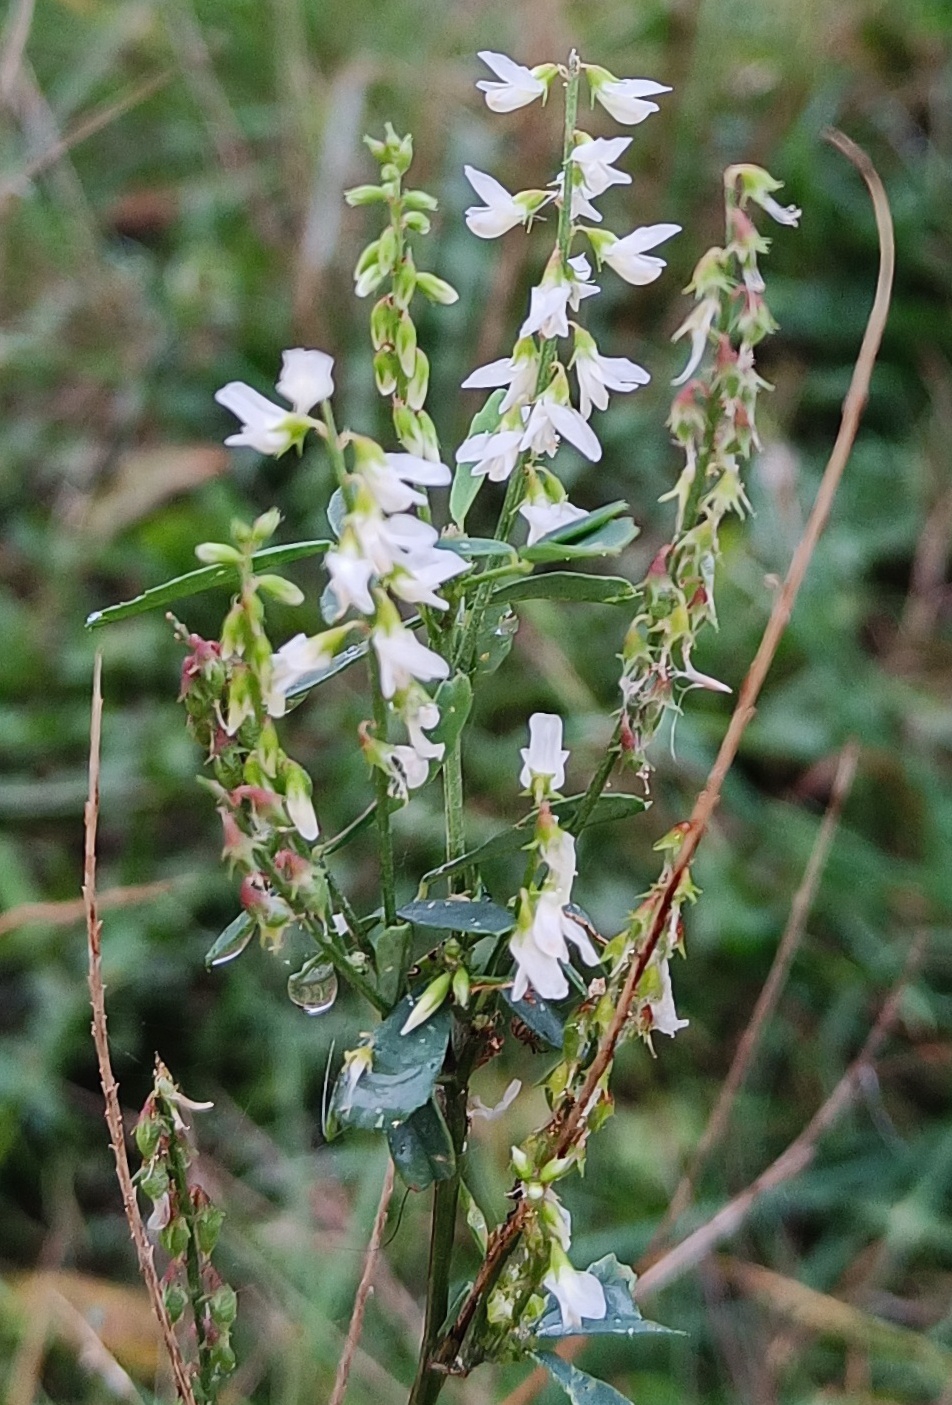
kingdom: Plantae
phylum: Tracheophyta
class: Magnoliopsida
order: Fabales
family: Fabaceae
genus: Melilotus
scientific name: Melilotus albus
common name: Hvid stenkløver
